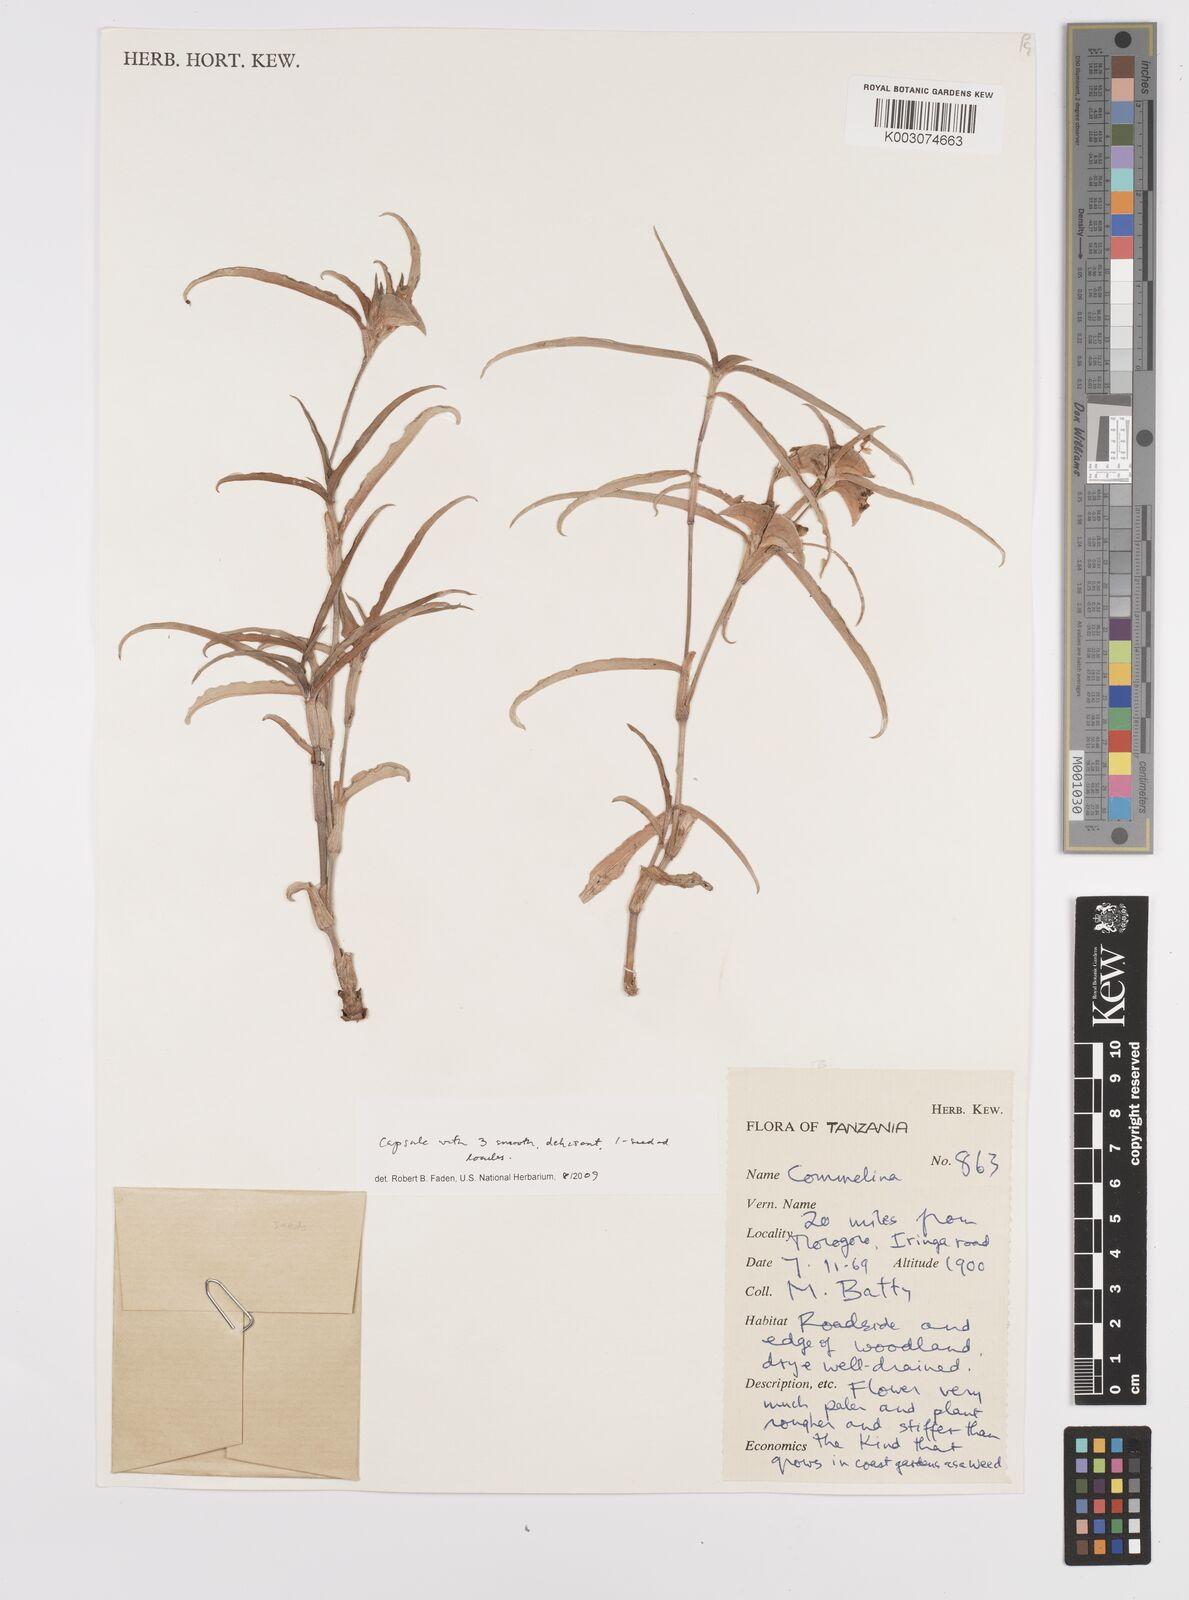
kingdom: Plantae
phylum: Tracheophyta
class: Liliopsida
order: Commelinales
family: Commelinaceae
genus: Commelina
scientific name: Commelina erecta
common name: Blousel blommetjie
